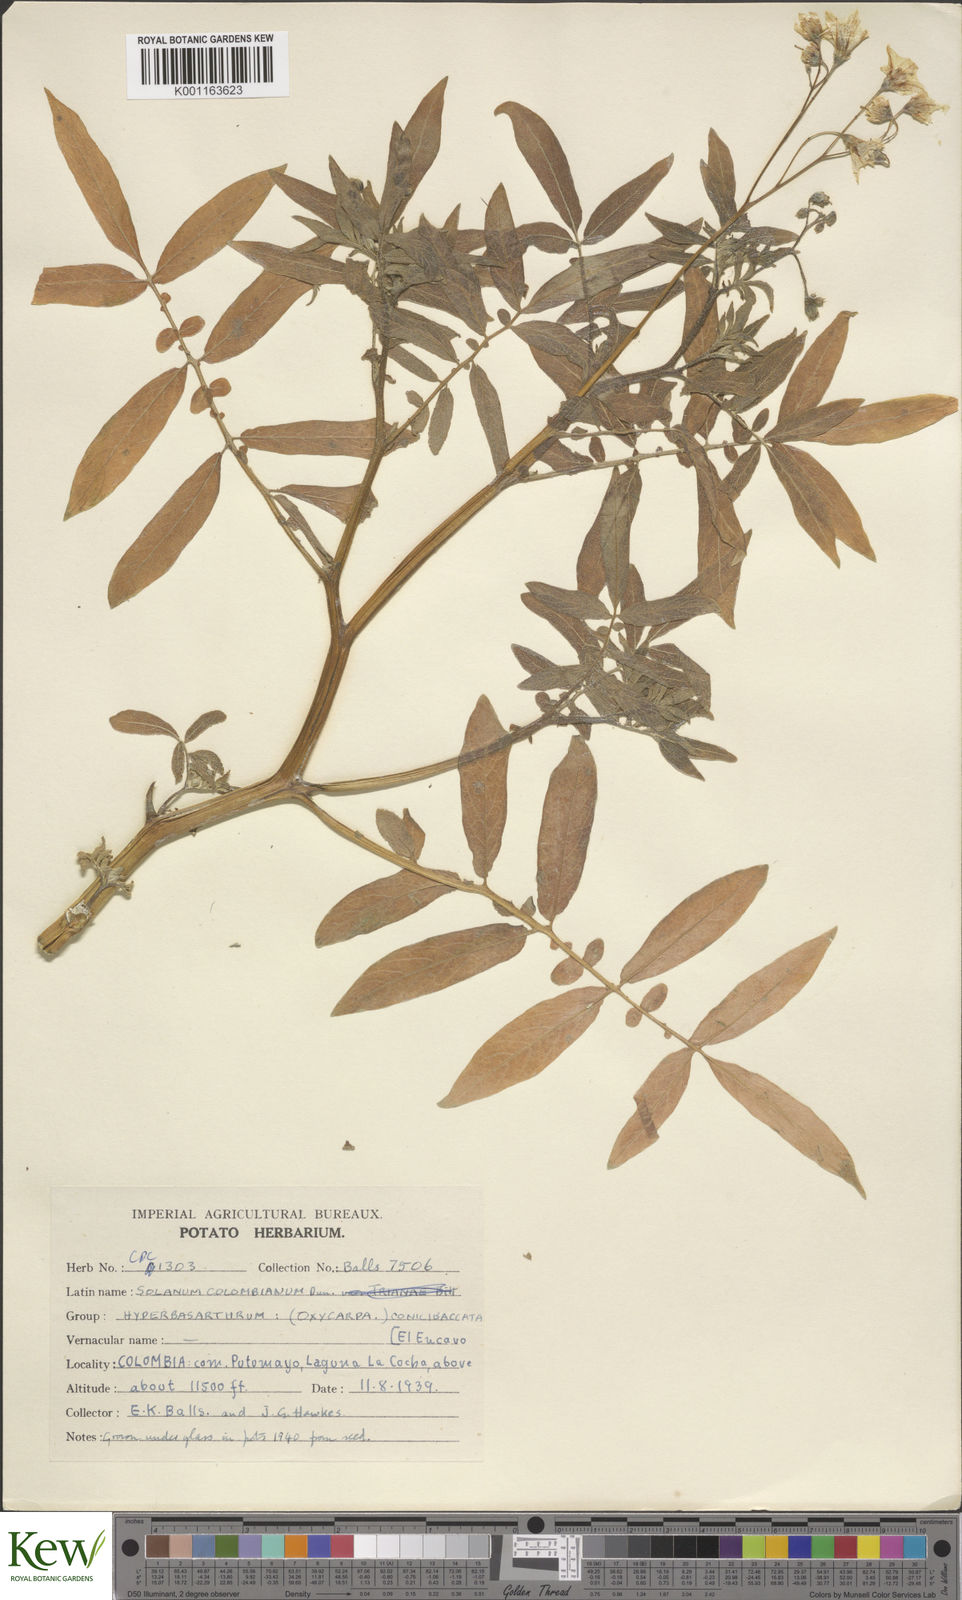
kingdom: Plantae
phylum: Tracheophyta
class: Magnoliopsida
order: Solanales
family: Solanaceae
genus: Solanum
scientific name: Solanum colombianum
